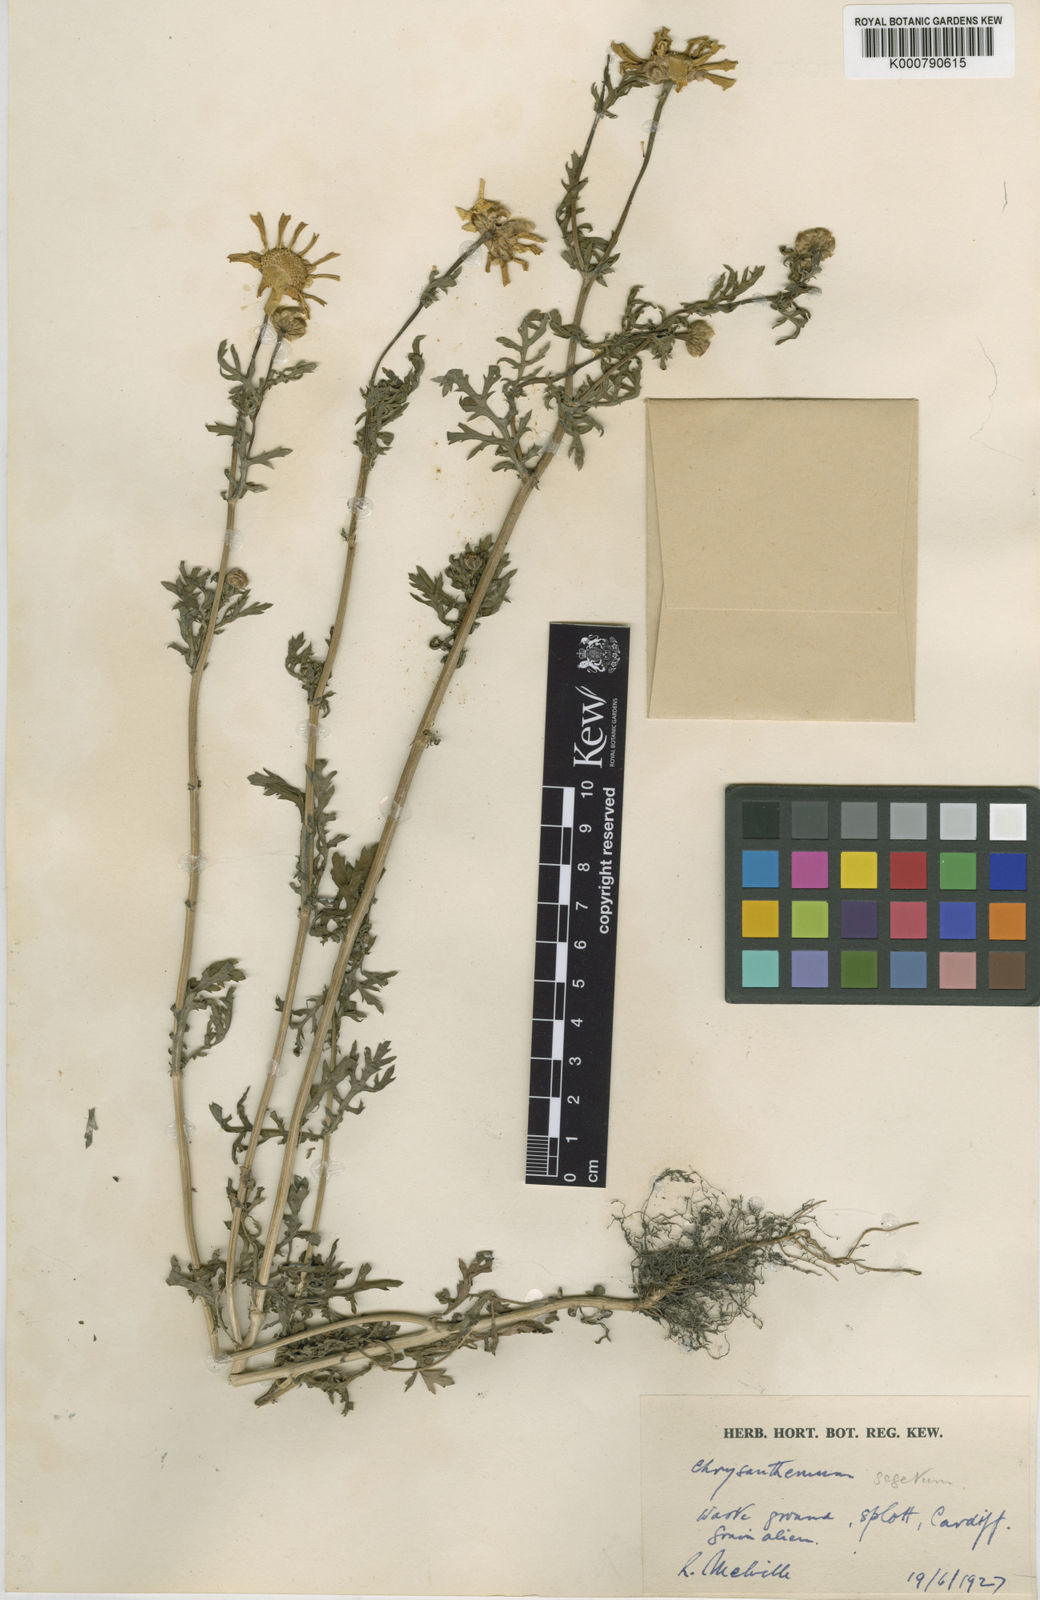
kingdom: Plantae
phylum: Tracheophyta
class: Magnoliopsida
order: Asterales
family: Asteraceae
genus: Glebionis
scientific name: Glebionis
